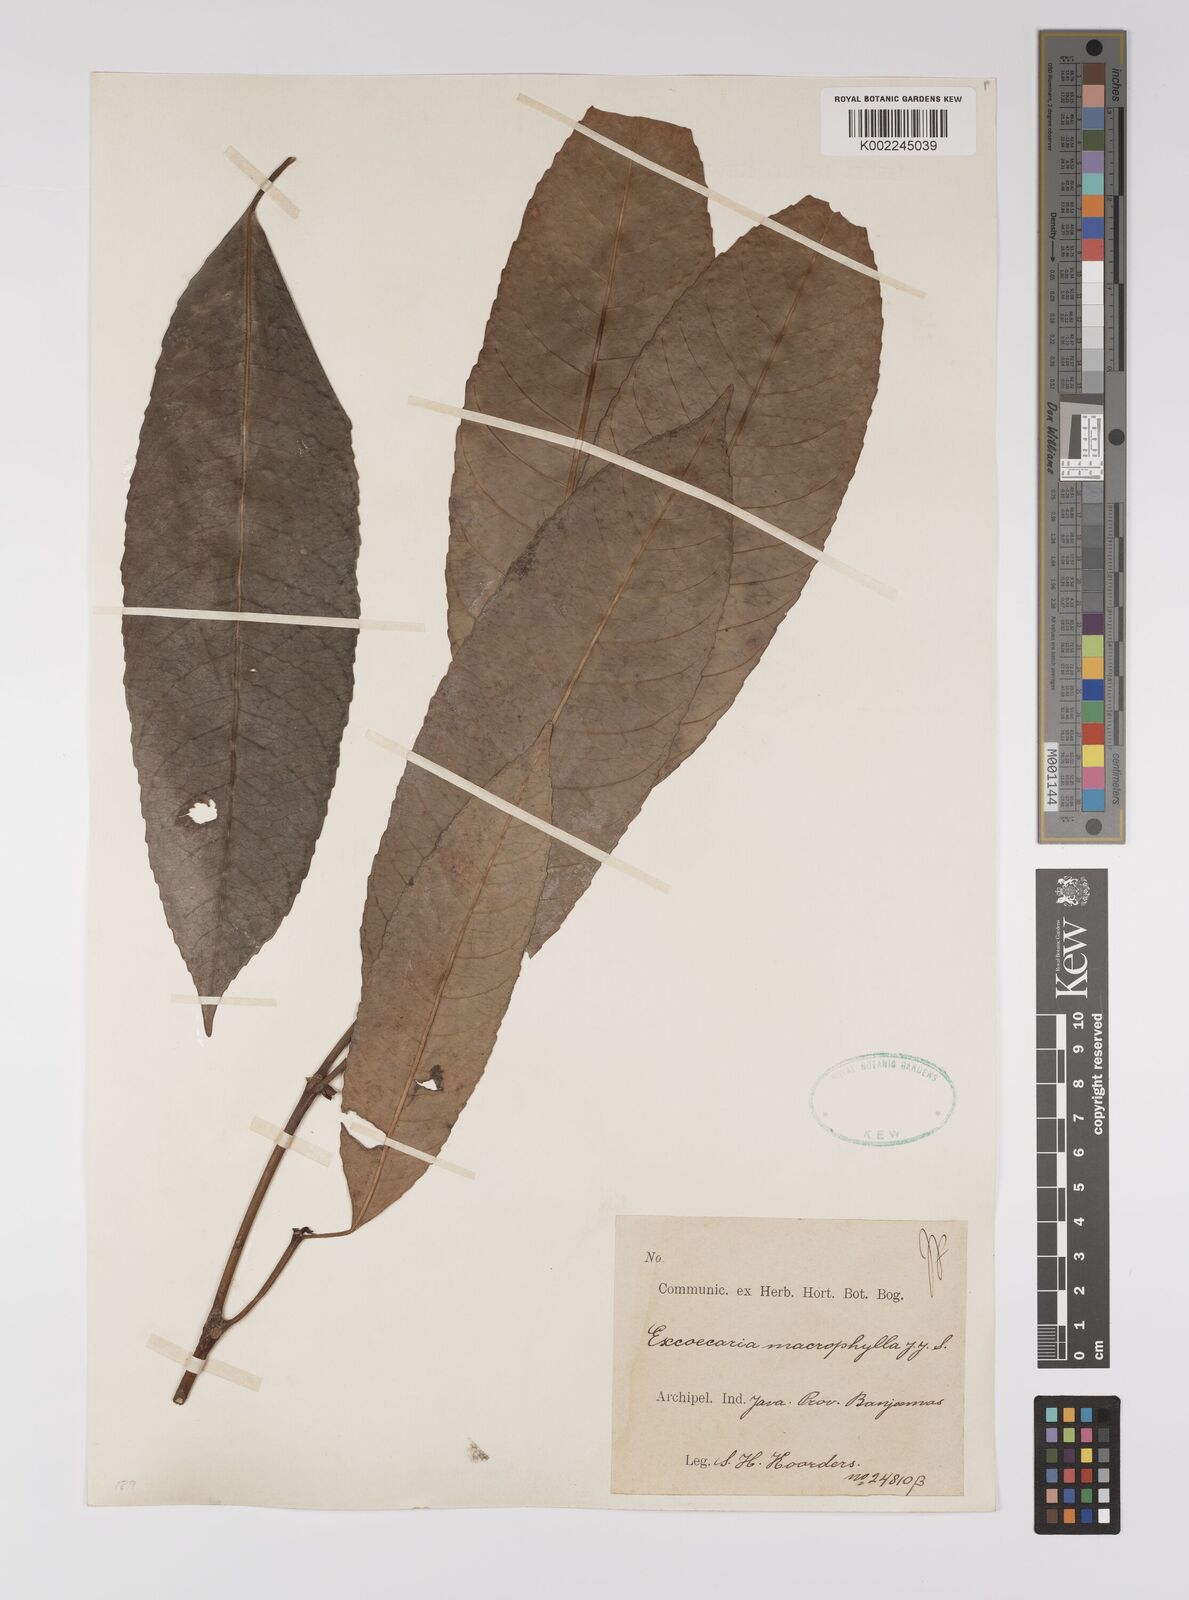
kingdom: Plantae
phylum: Tracheophyta
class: Magnoliopsida
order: Malpighiales
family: Euphorbiaceae
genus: Excoecaria
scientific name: Excoecaria bantamensis
